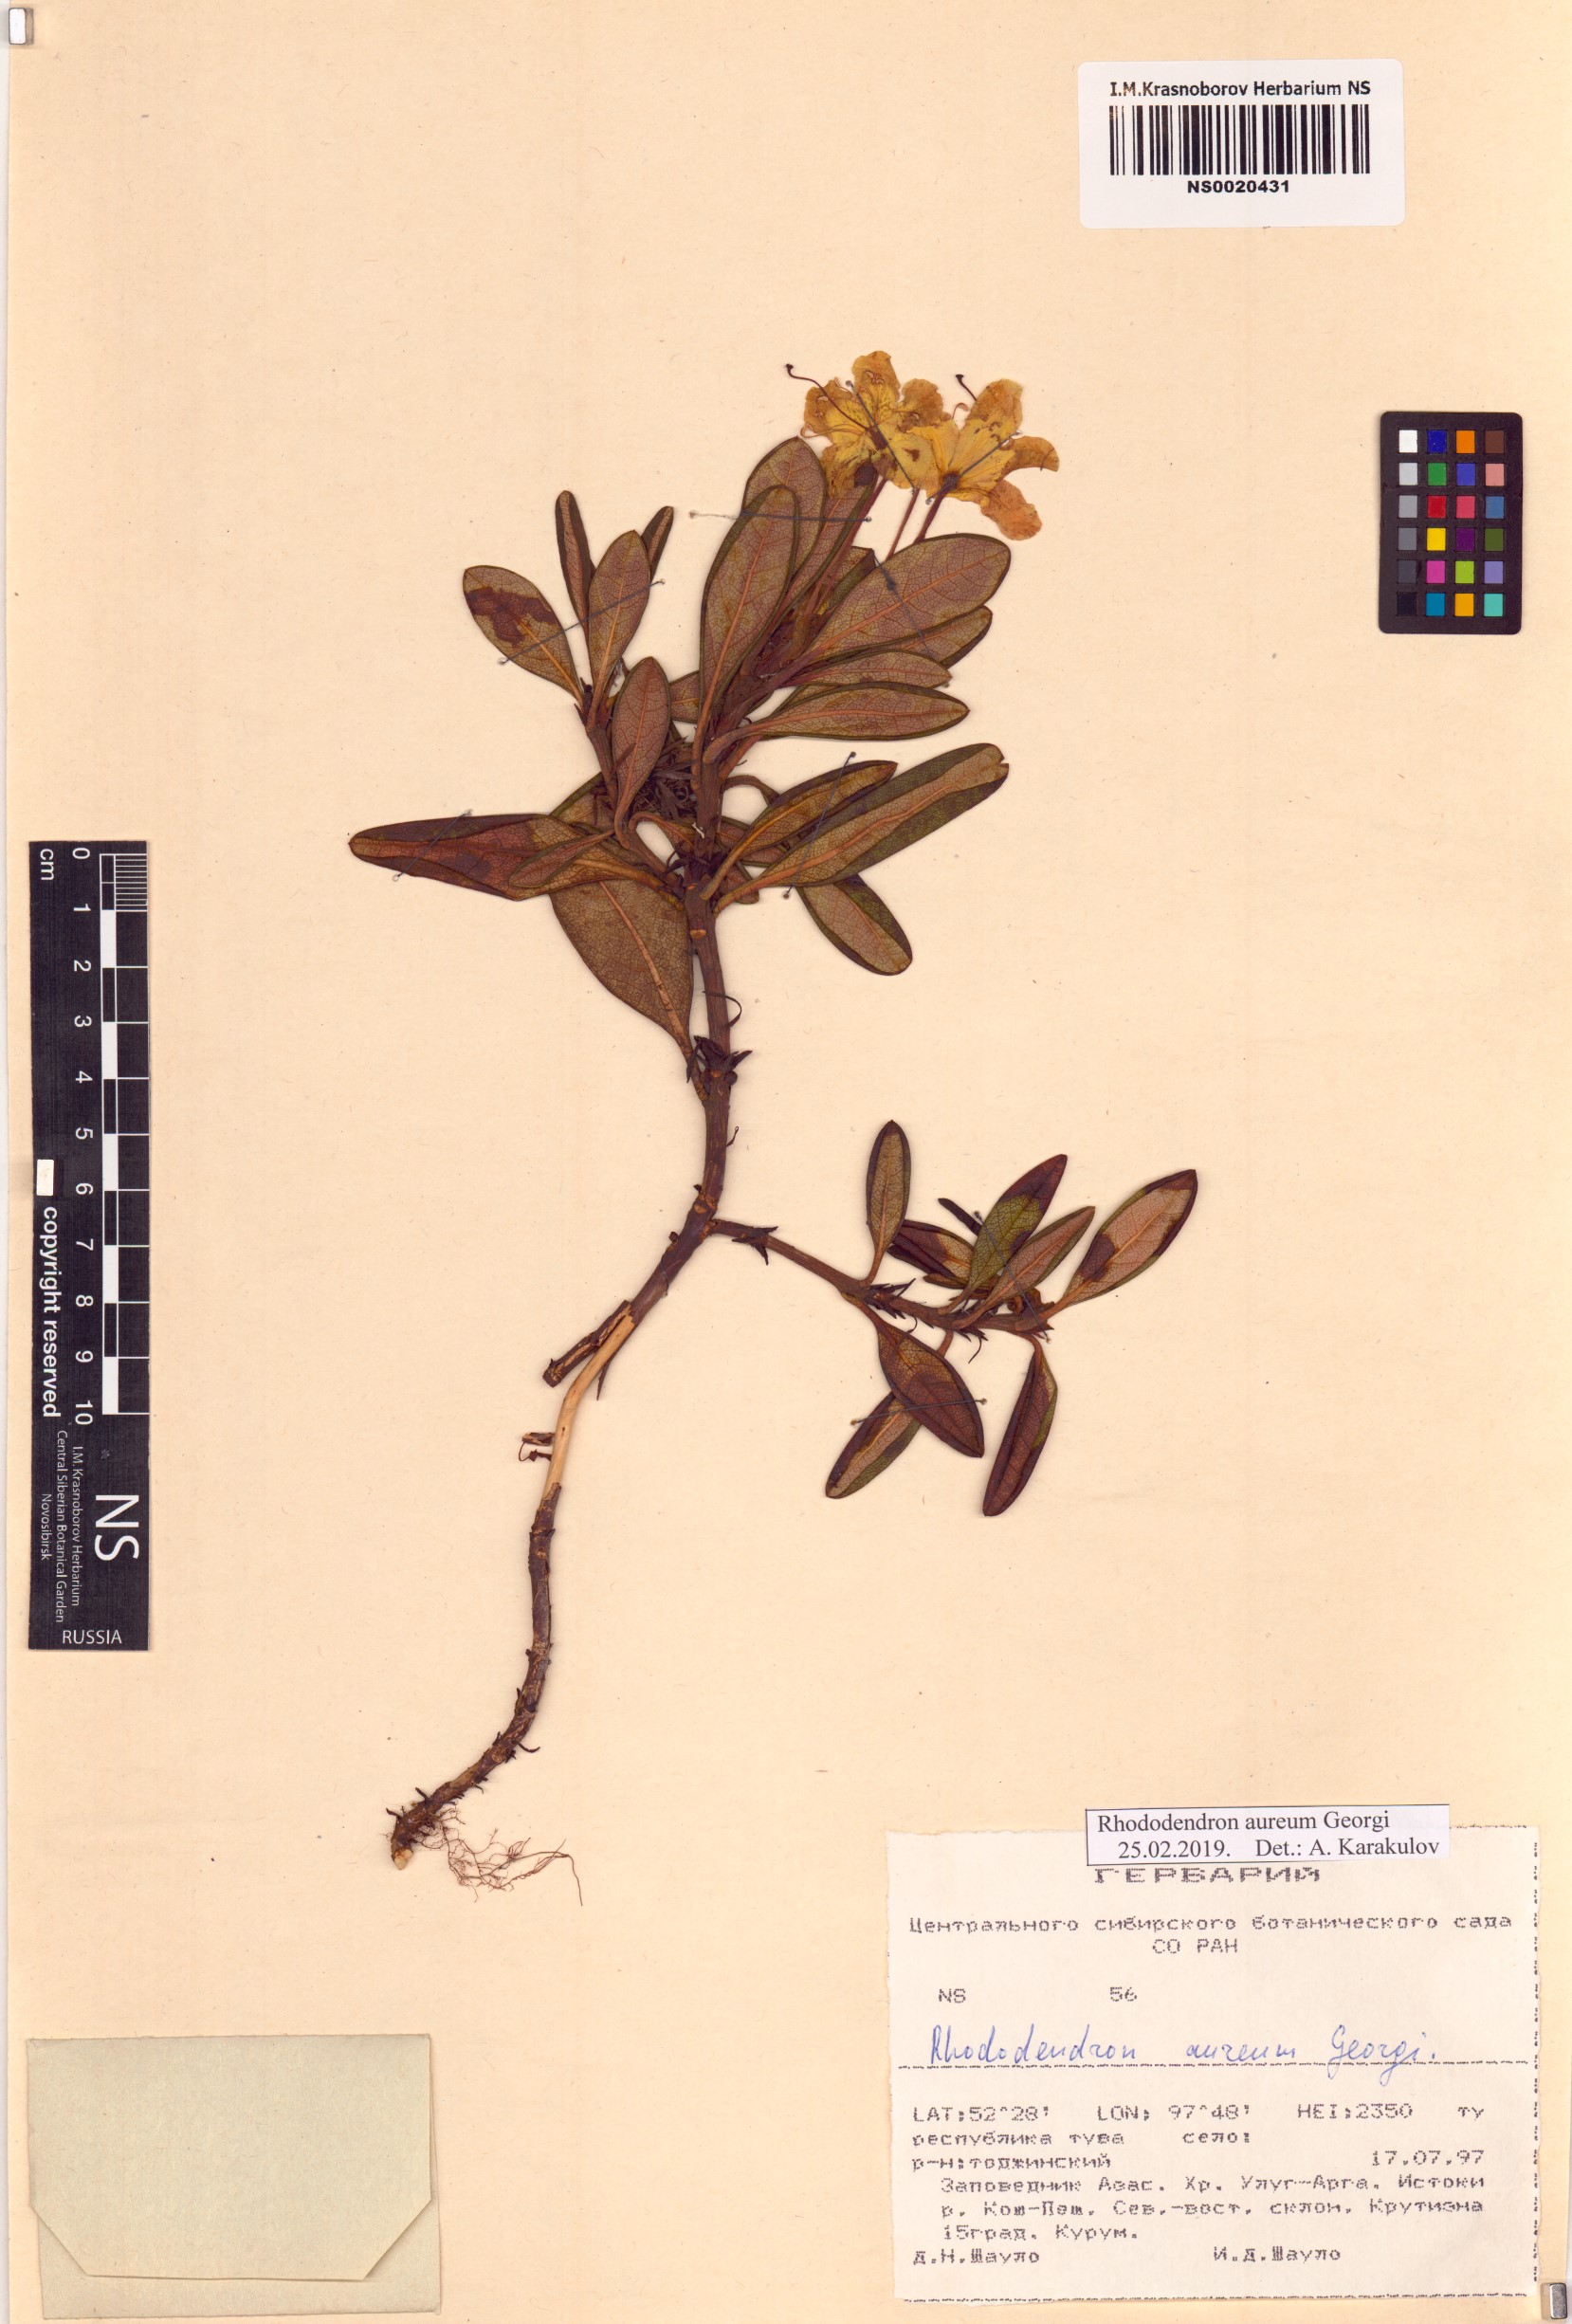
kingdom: Plantae
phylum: Tracheophyta
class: Magnoliopsida
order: Ericales
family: Ericaceae
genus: Rhododendron
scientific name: Rhododendron aureum
